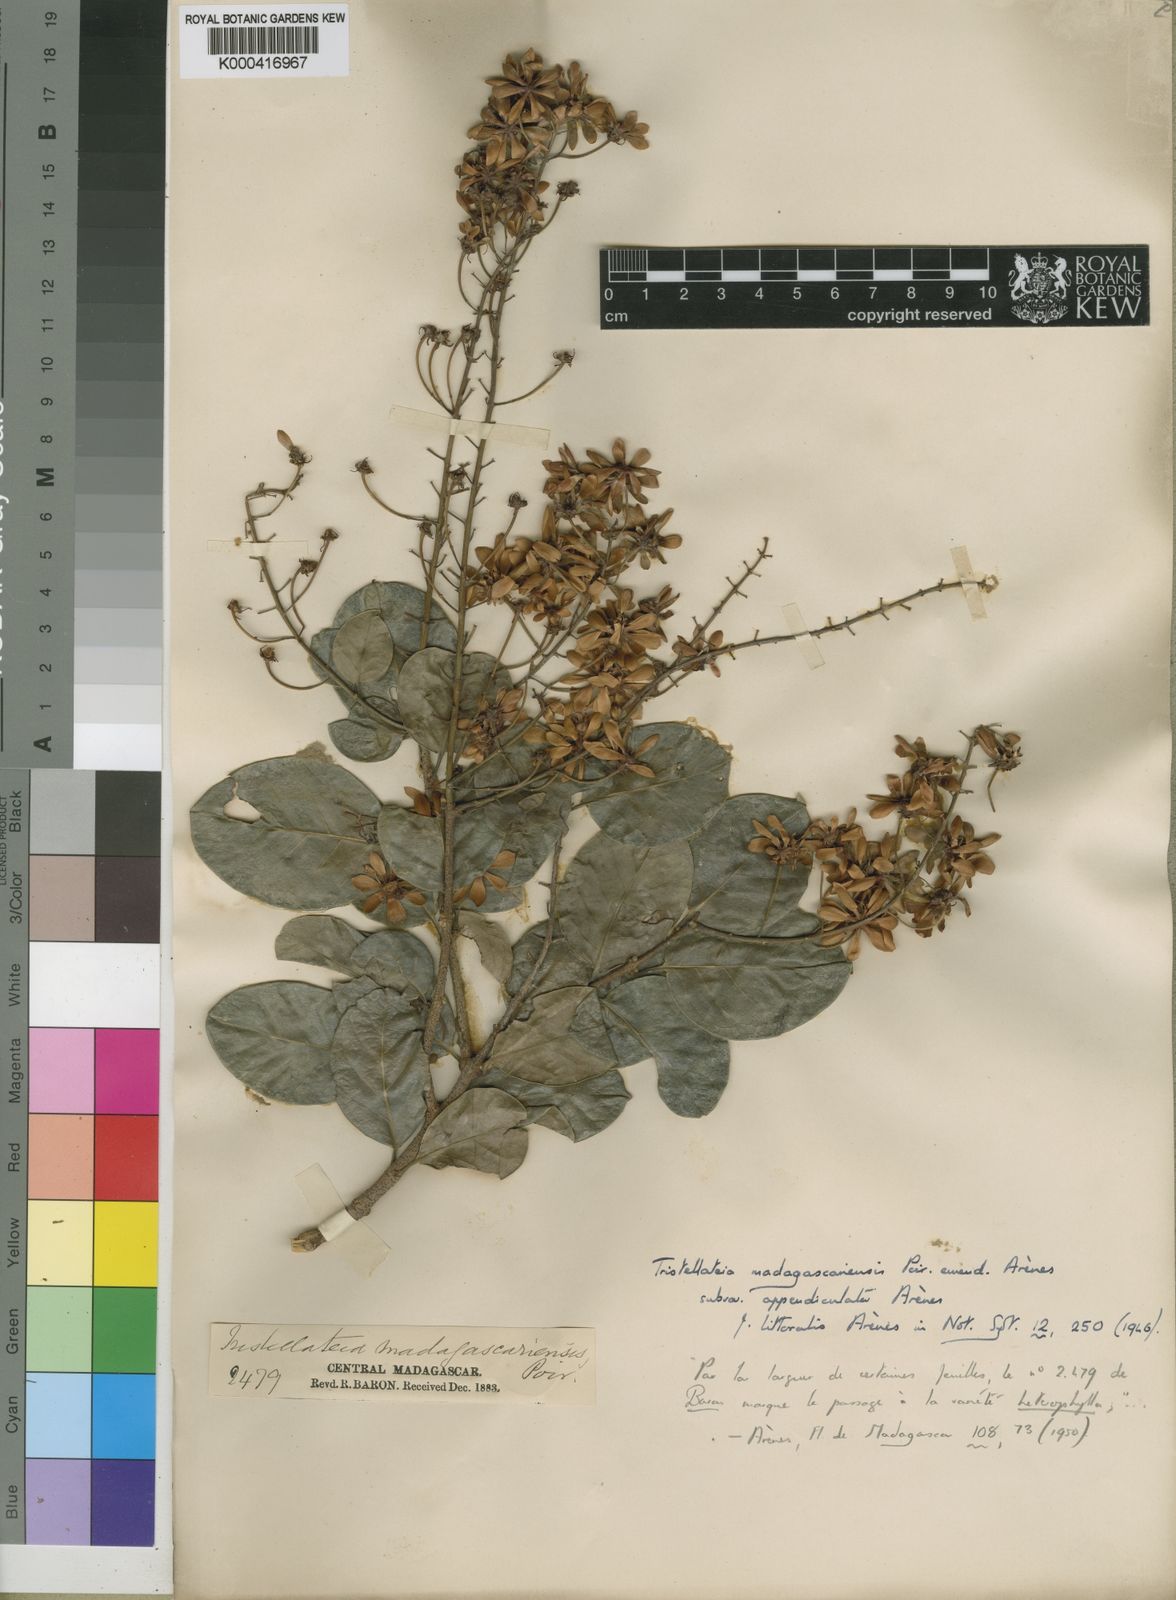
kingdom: Plantae
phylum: Tracheophyta
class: Magnoliopsida
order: Malpighiales
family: Malpighiaceae
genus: Tristellateia
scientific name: Tristellateia madagascariensis
